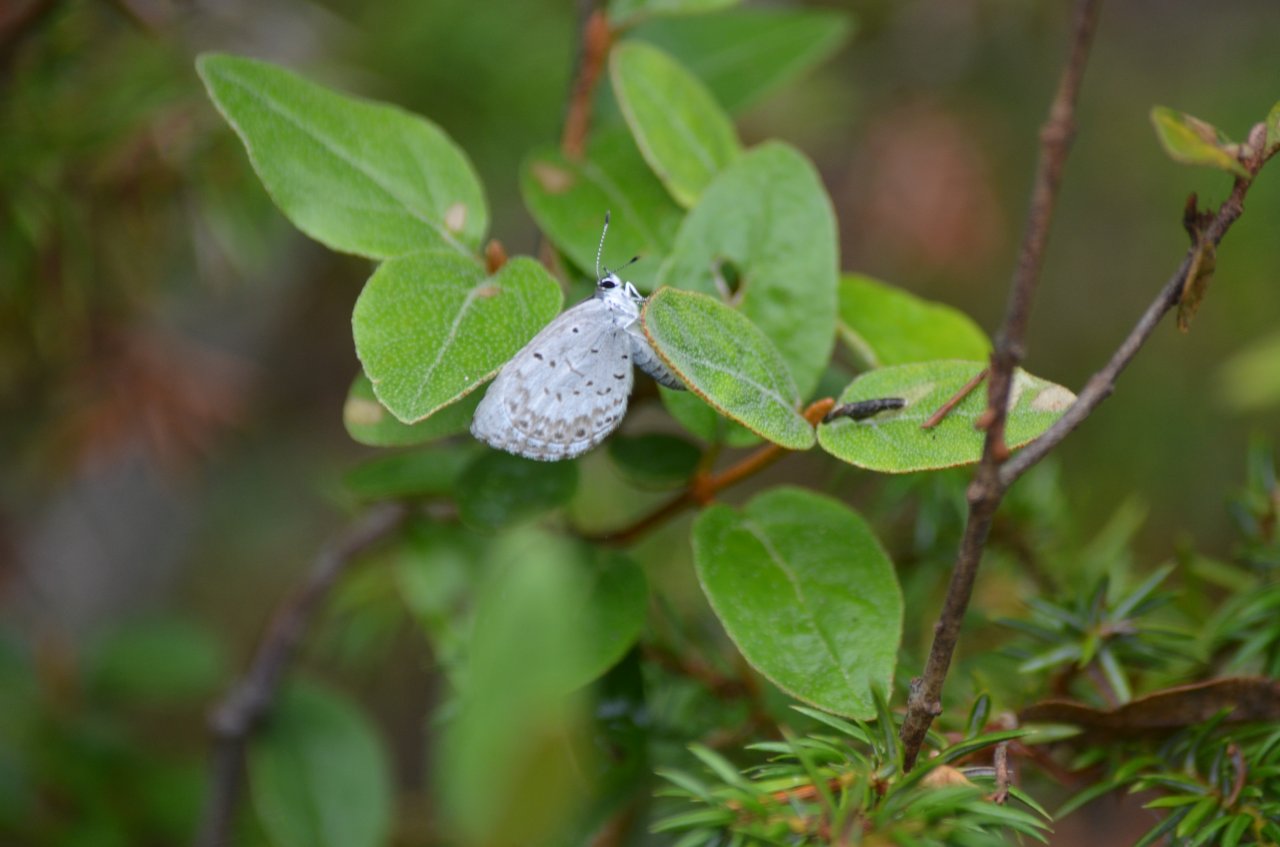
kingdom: Animalia
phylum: Arthropoda
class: Insecta
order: Lepidoptera
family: Lycaenidae
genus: Cyaniris
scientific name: Cyaniris neglecta
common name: Summer Azure
